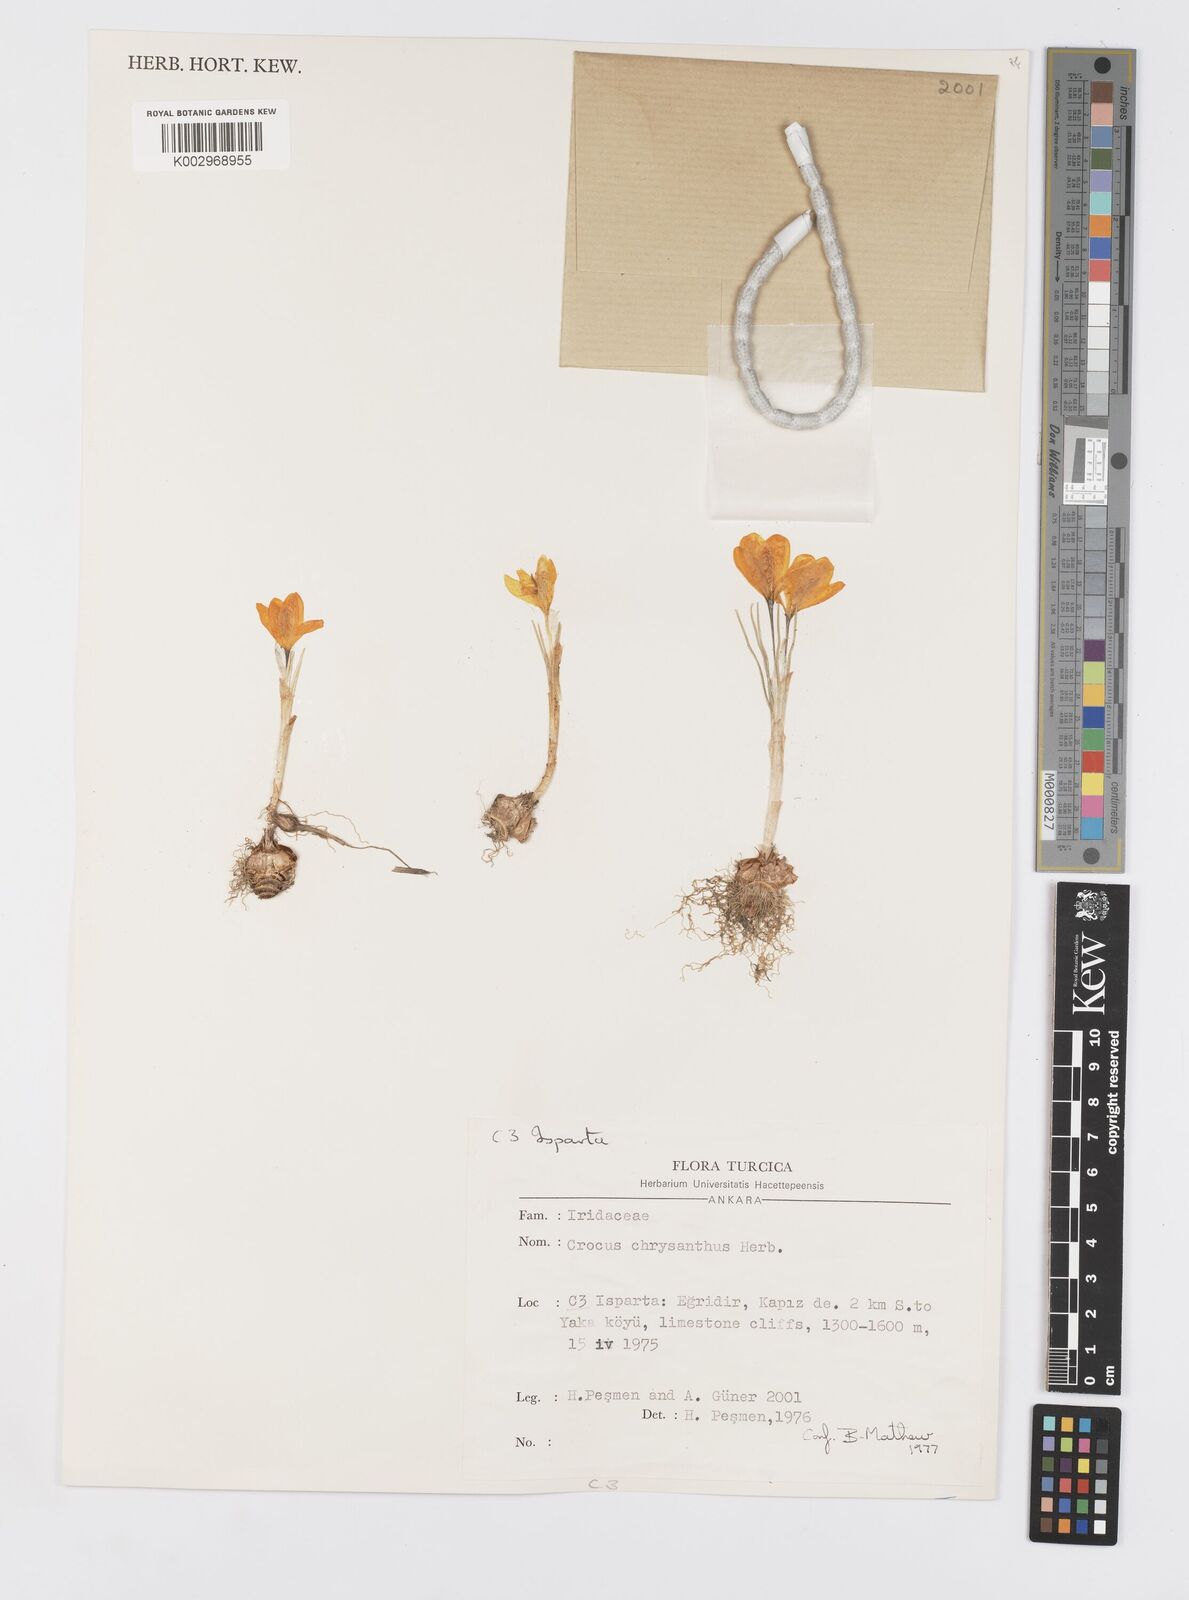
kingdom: Plantae
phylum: Tracheophyta
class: Liliopsida
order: Asparagales
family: Iridaceae
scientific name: Iridaceae
